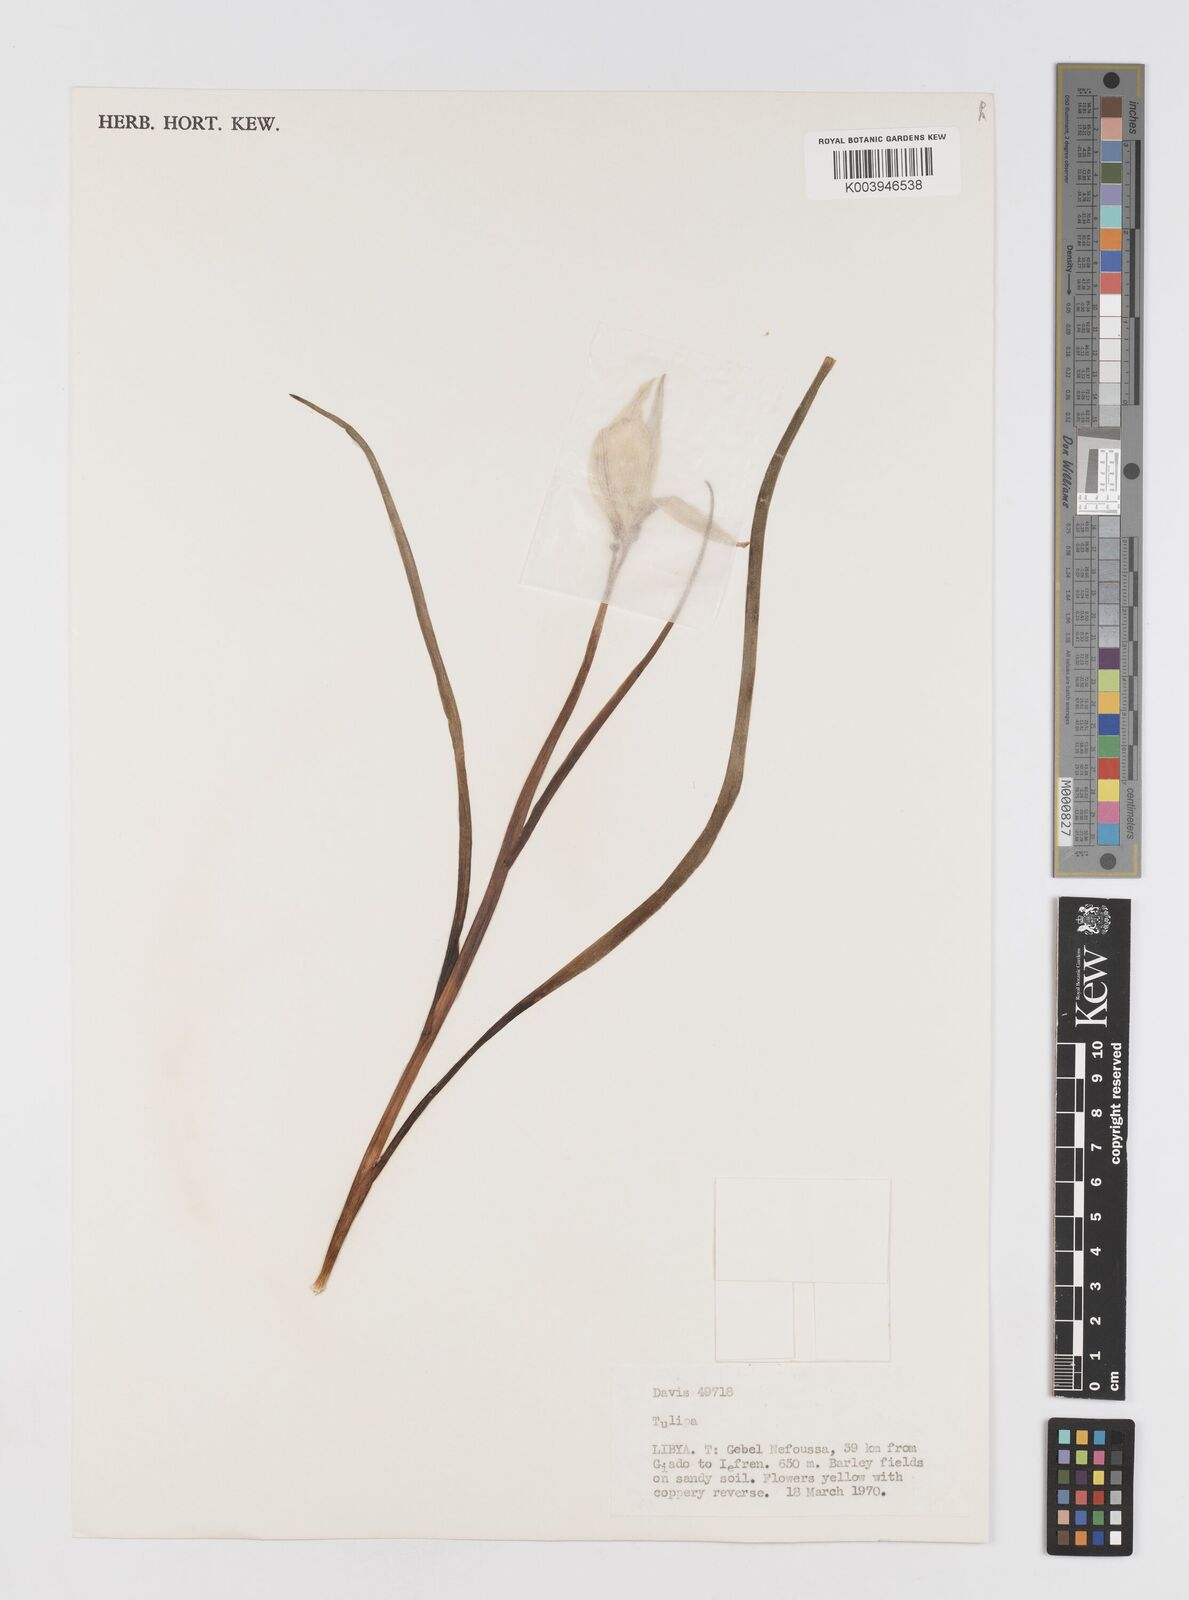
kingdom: Plantae
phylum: Tracheophyta
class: Liliopsida
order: Liliales
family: Liliaceae
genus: Tulipa
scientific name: Tulipa sylvestris
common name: Wild tulip
